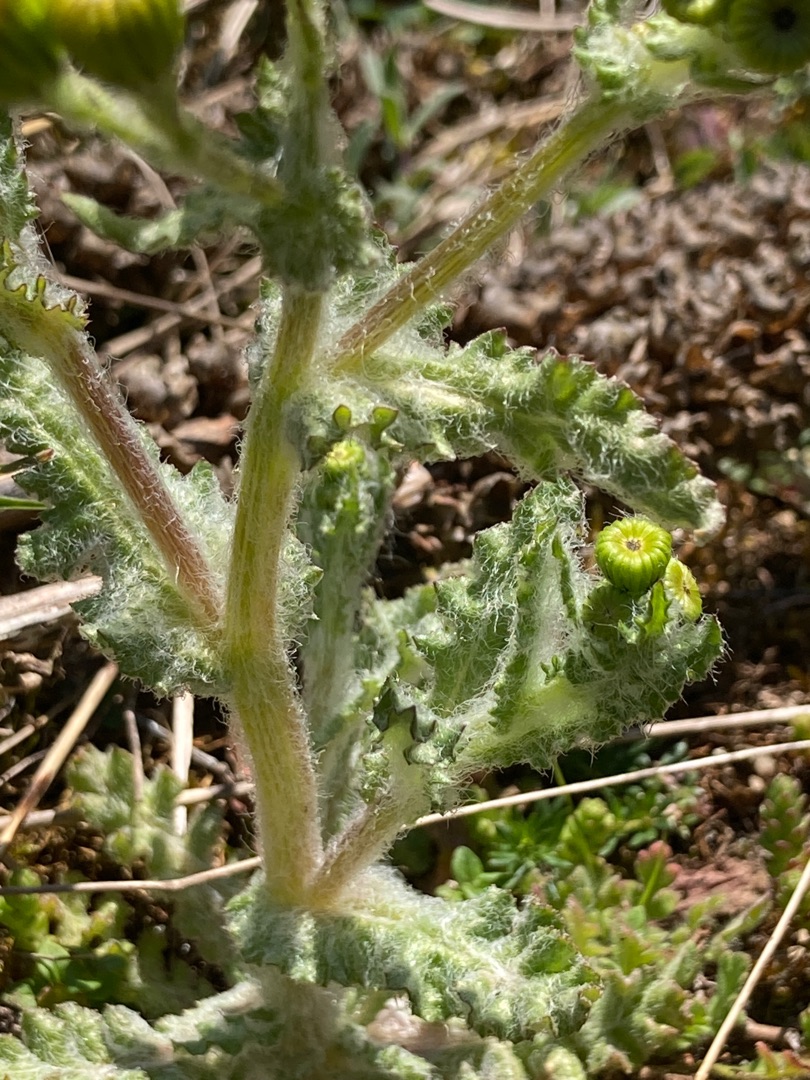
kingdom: Plantae
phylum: Tracheophyta
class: Magnoliopsida
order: Asterales
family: Asteraceae
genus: Senecio
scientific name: Senecio leucanthemifolius
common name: Vår-brandbæger
